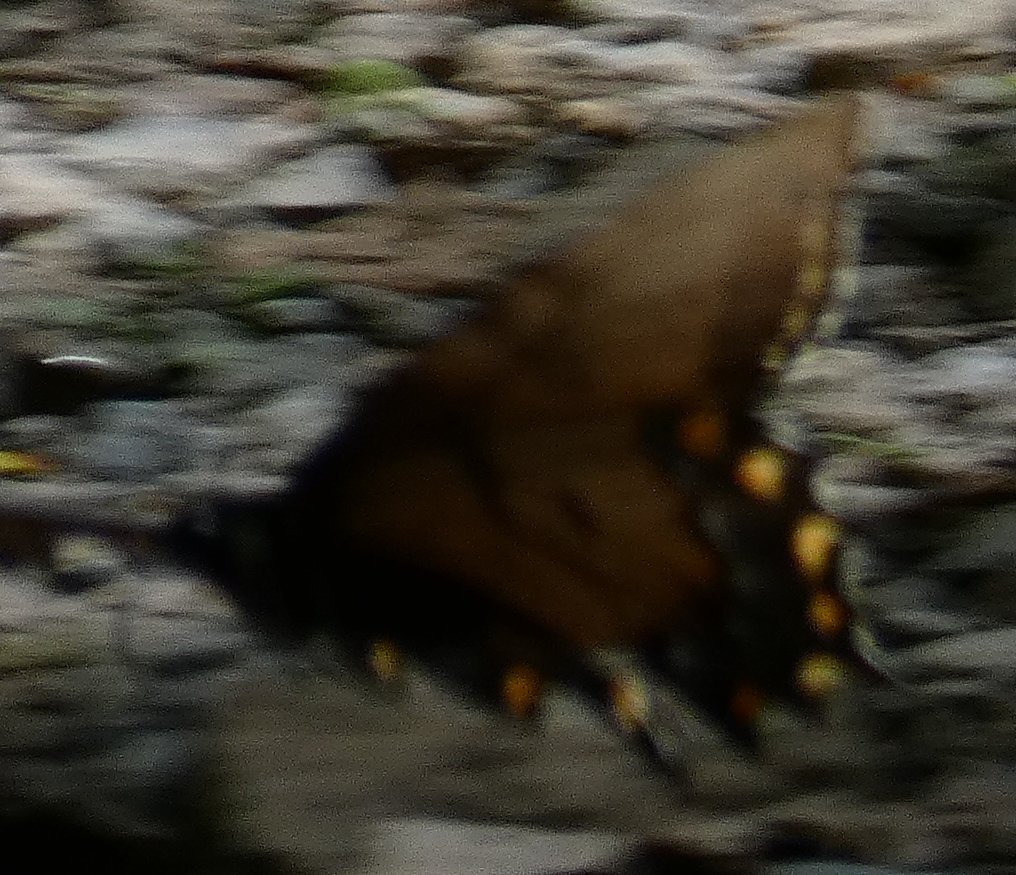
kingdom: Animalia
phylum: Arthropoda
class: Insecta
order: Lepidoptera
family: Papilionidae
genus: Pterourus
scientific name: Pterourus glaucus
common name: Eastern Tiger Swallowtail
